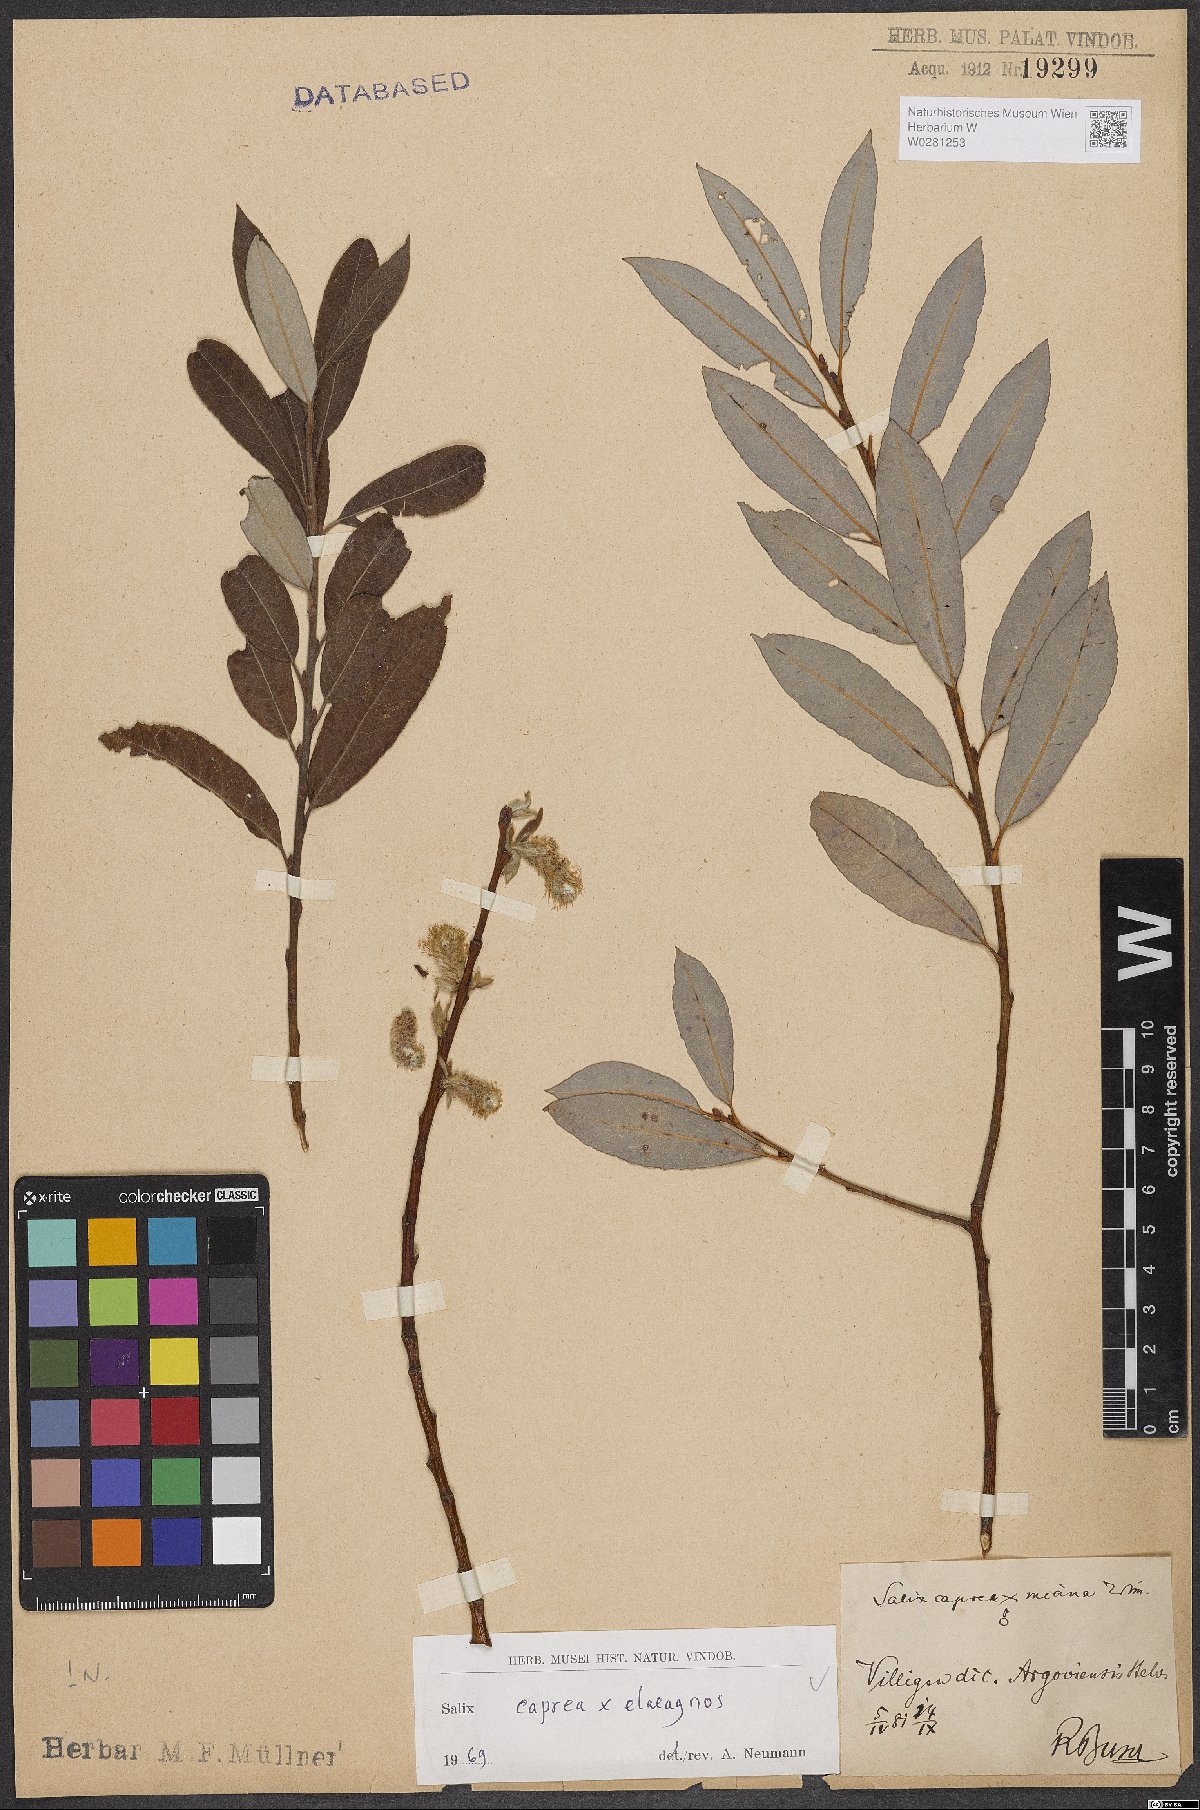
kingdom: Plantae
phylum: Tracheophyta
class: Magnoliopsida
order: Malpighiales
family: Salicaceae
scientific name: Salicaceae
